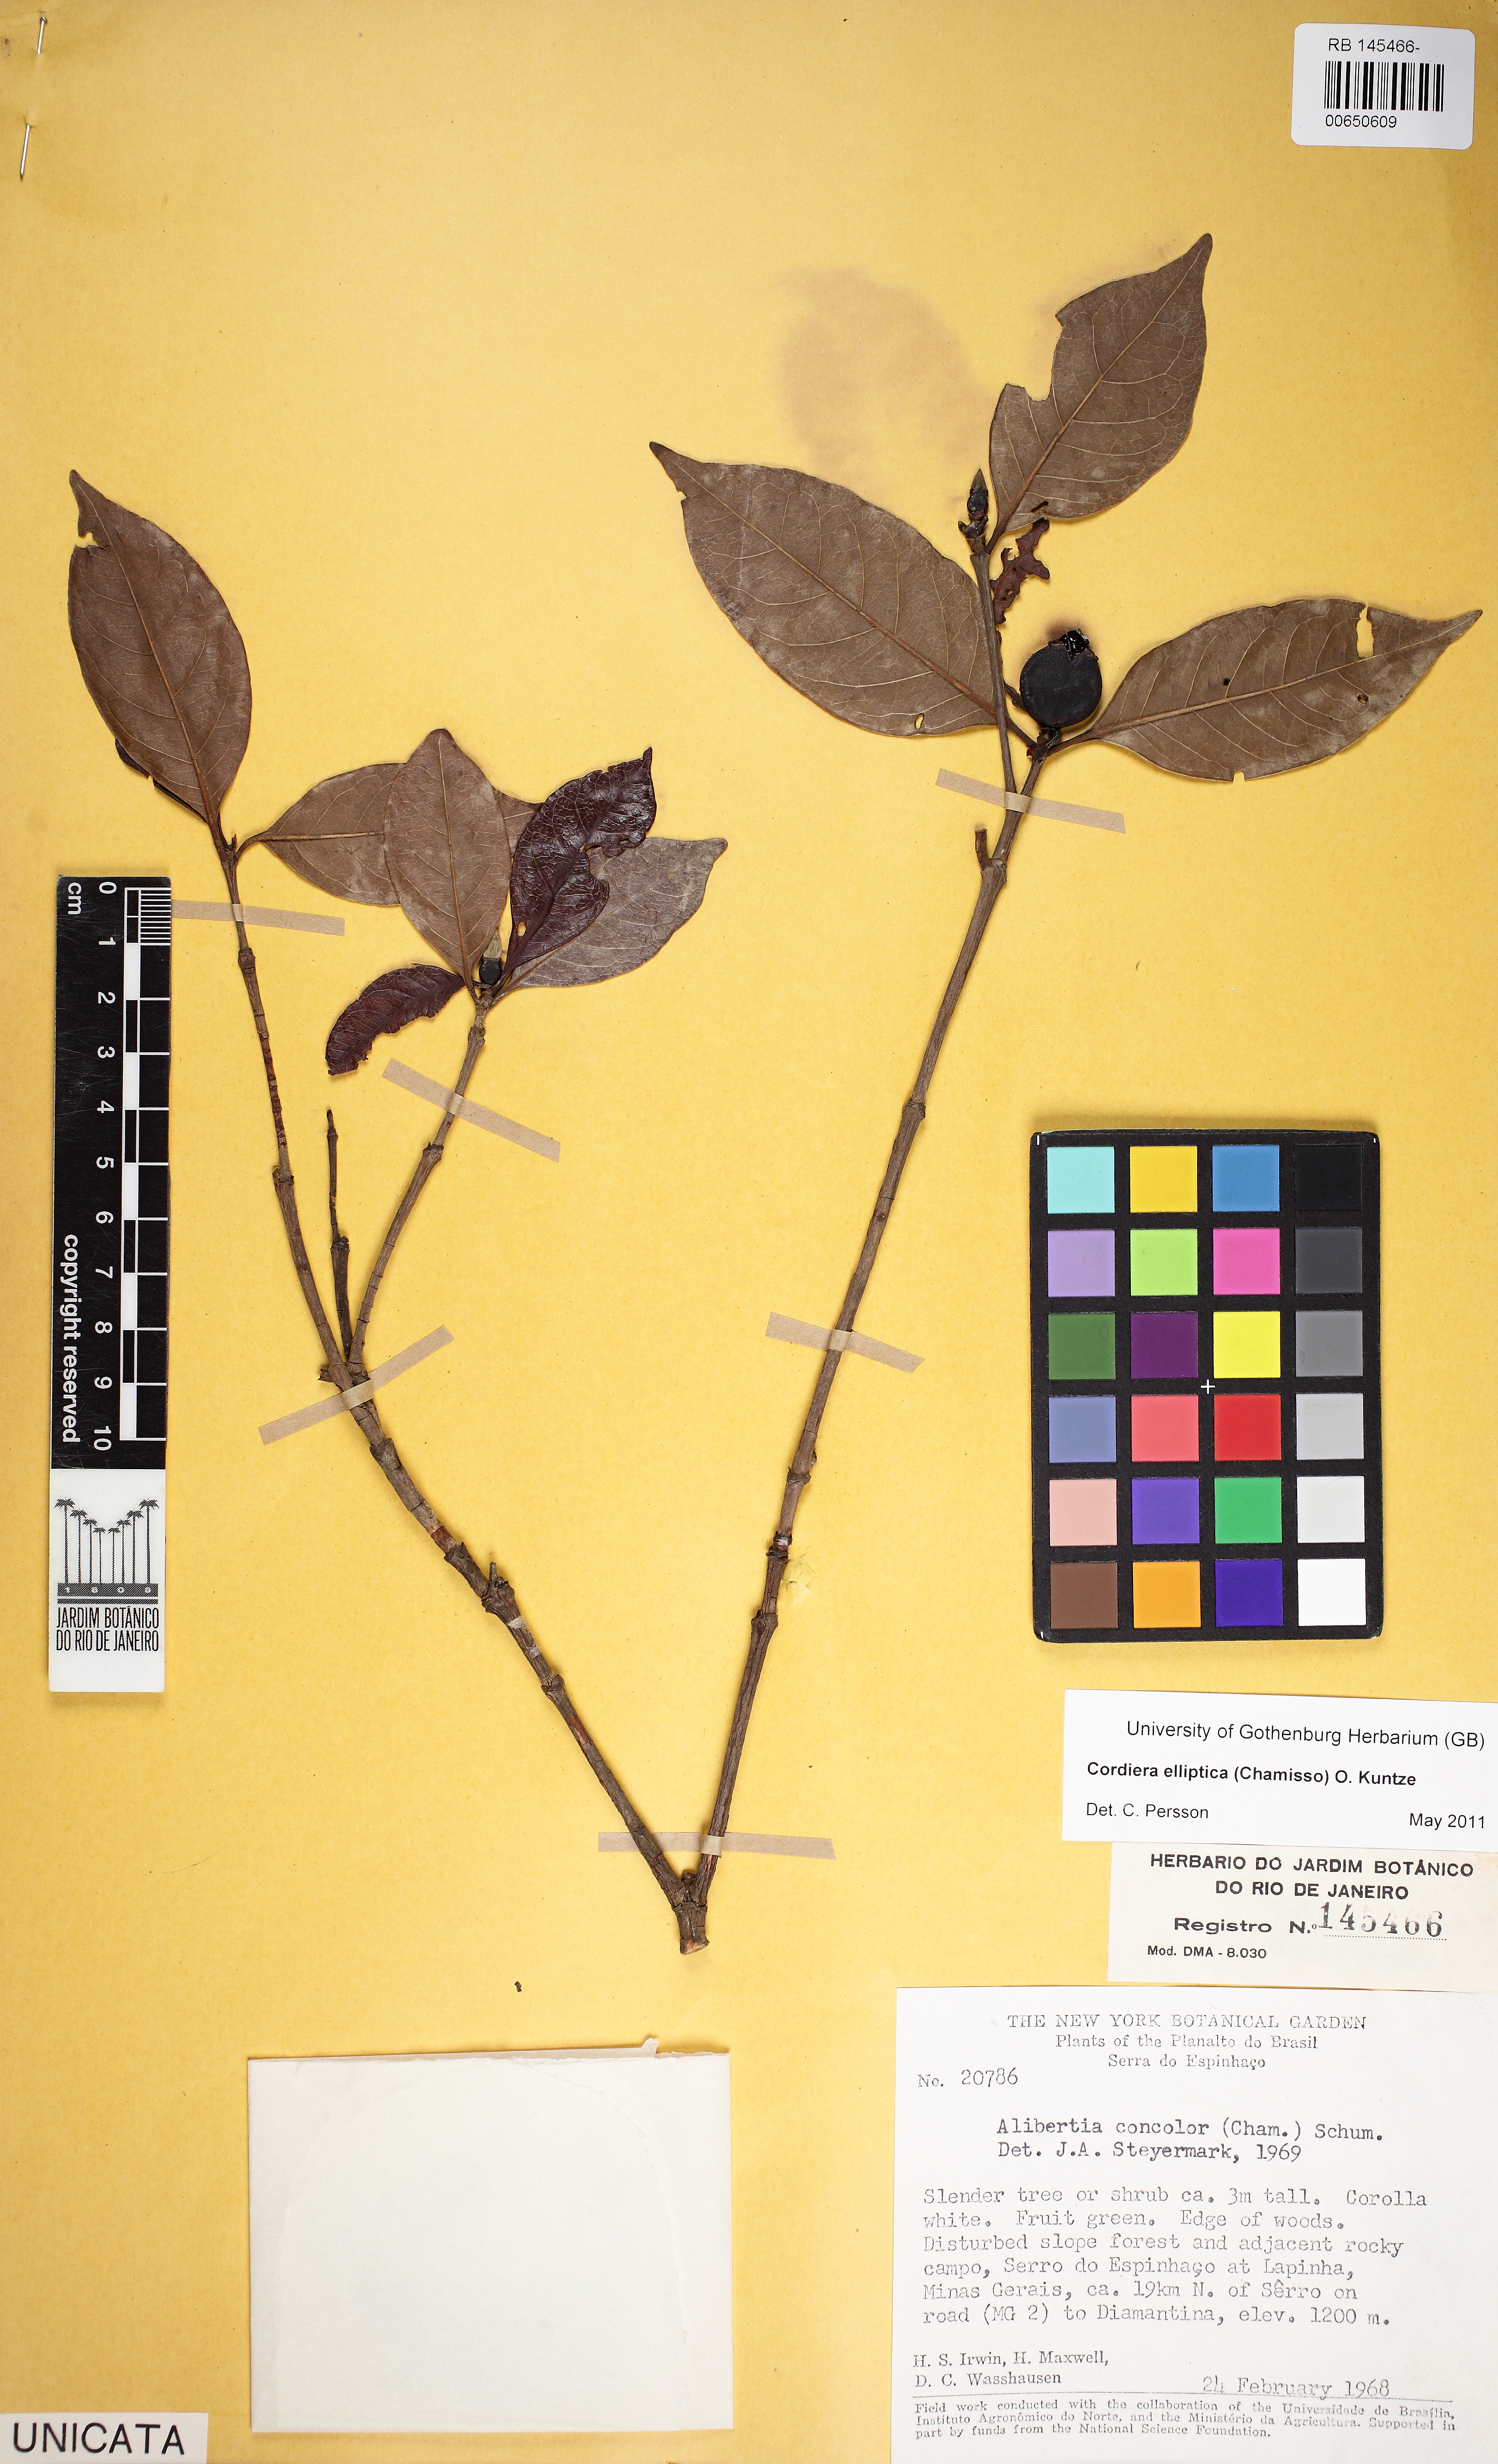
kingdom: Plantae
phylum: Tracheophyta
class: Magnoliopsida
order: Gentianales
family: Rubiaceae
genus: Cordiera
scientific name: Cordiera elliptica
